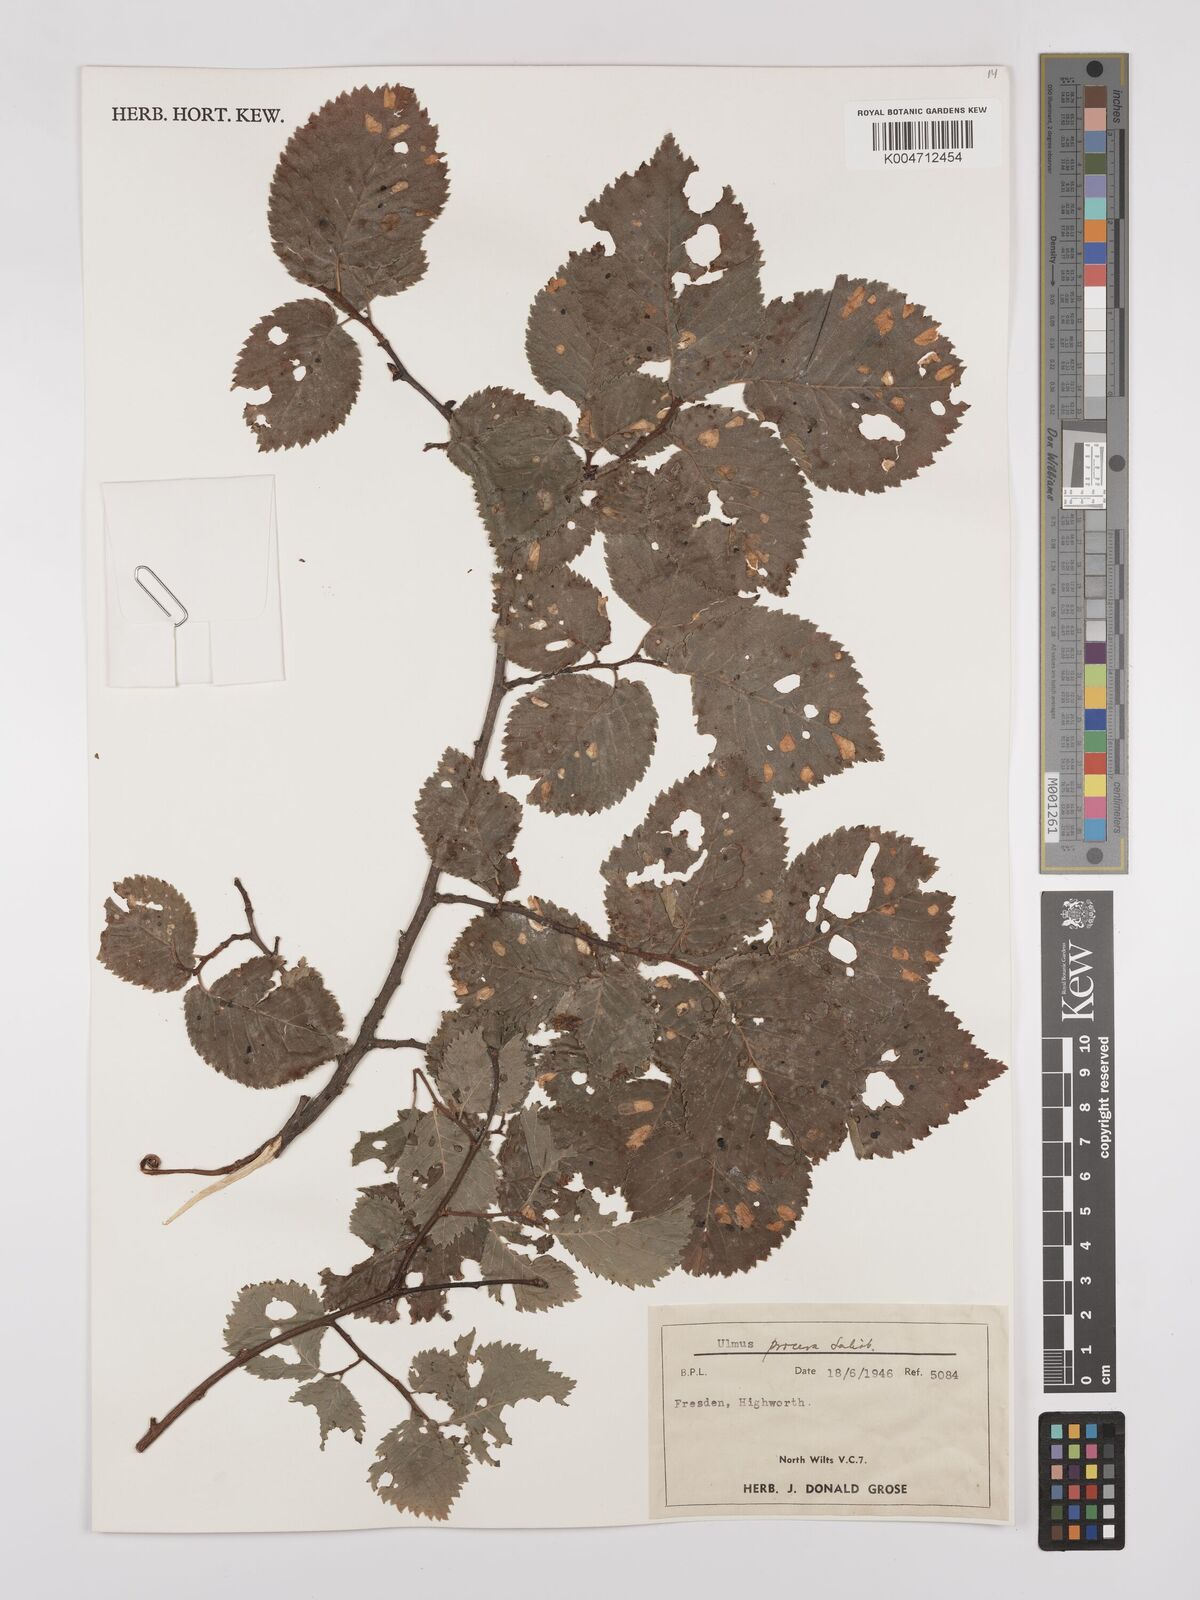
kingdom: Plantae
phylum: Tracheophyta
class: Magnoliopsida
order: Rosales
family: Ulmaceae
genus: Ulmus
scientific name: Ulmus minor
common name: Small-leaved elm
